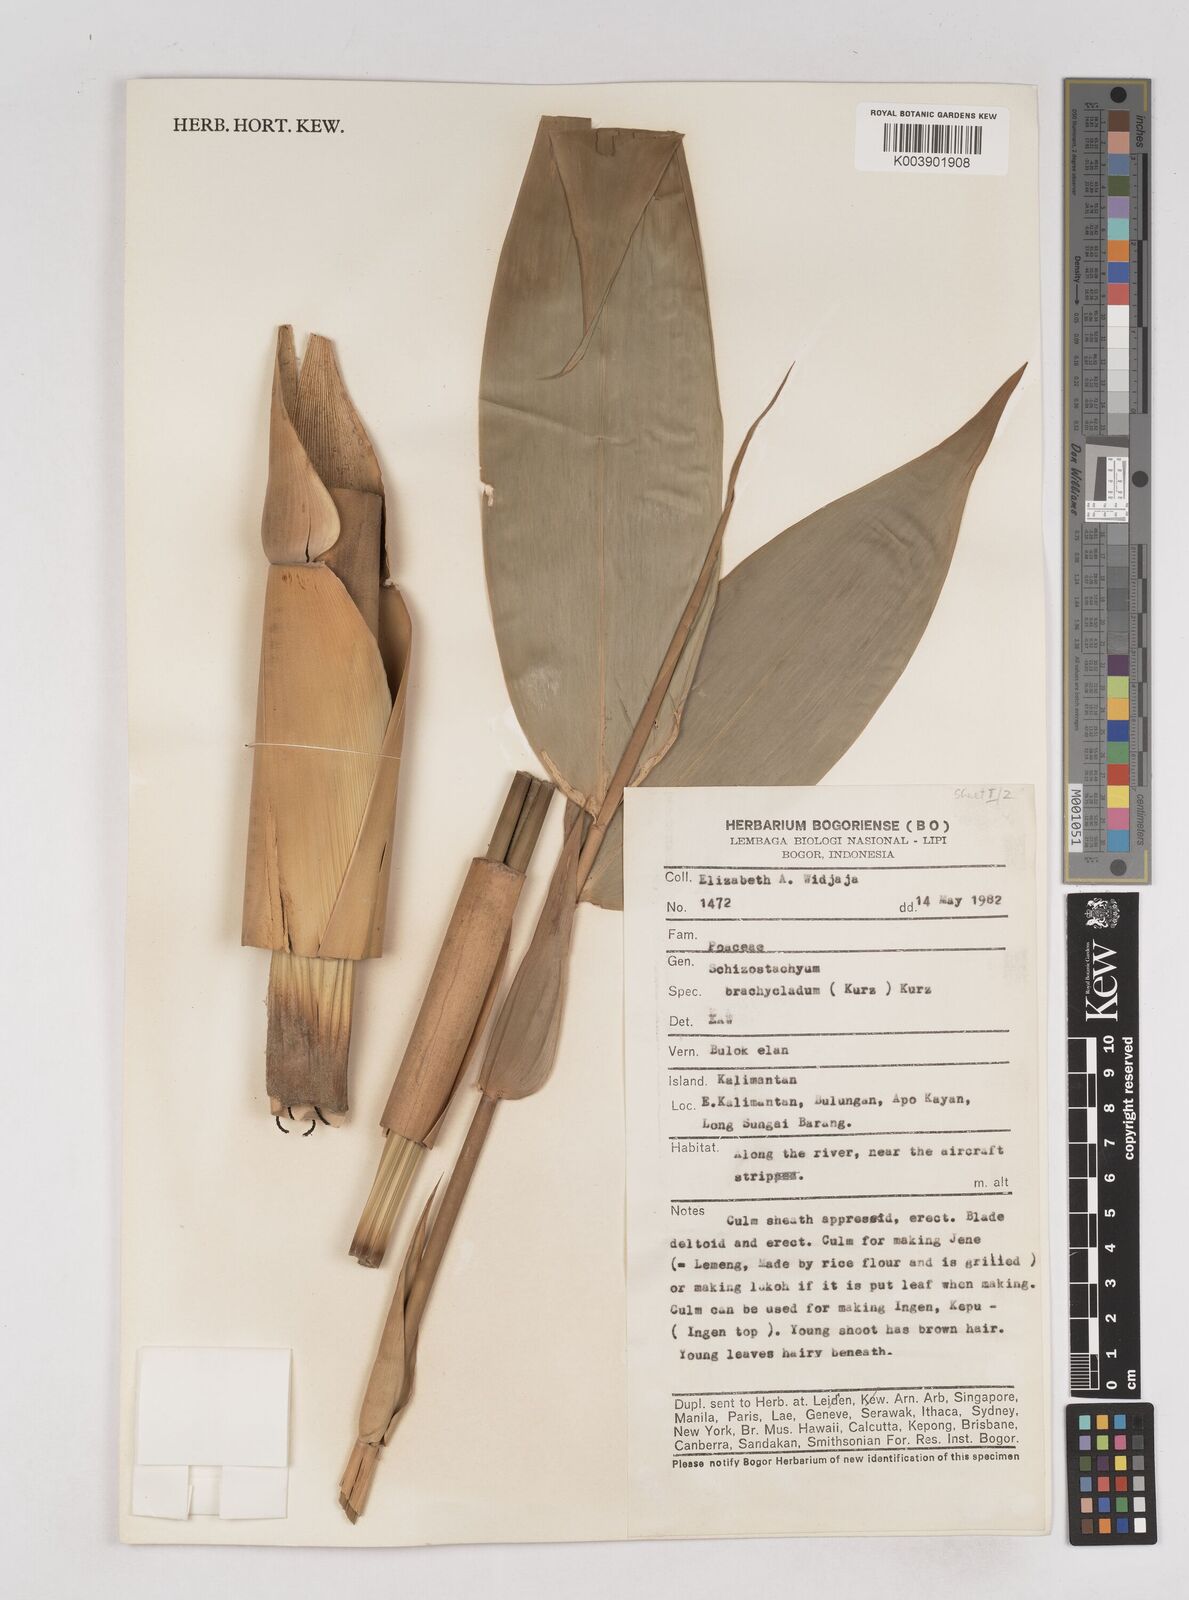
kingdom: Plantae
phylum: Tracheophyta
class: Liliopsida
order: Poales
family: Poaceae
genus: Schizostachyum
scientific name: Schizostachyum brachycladum
